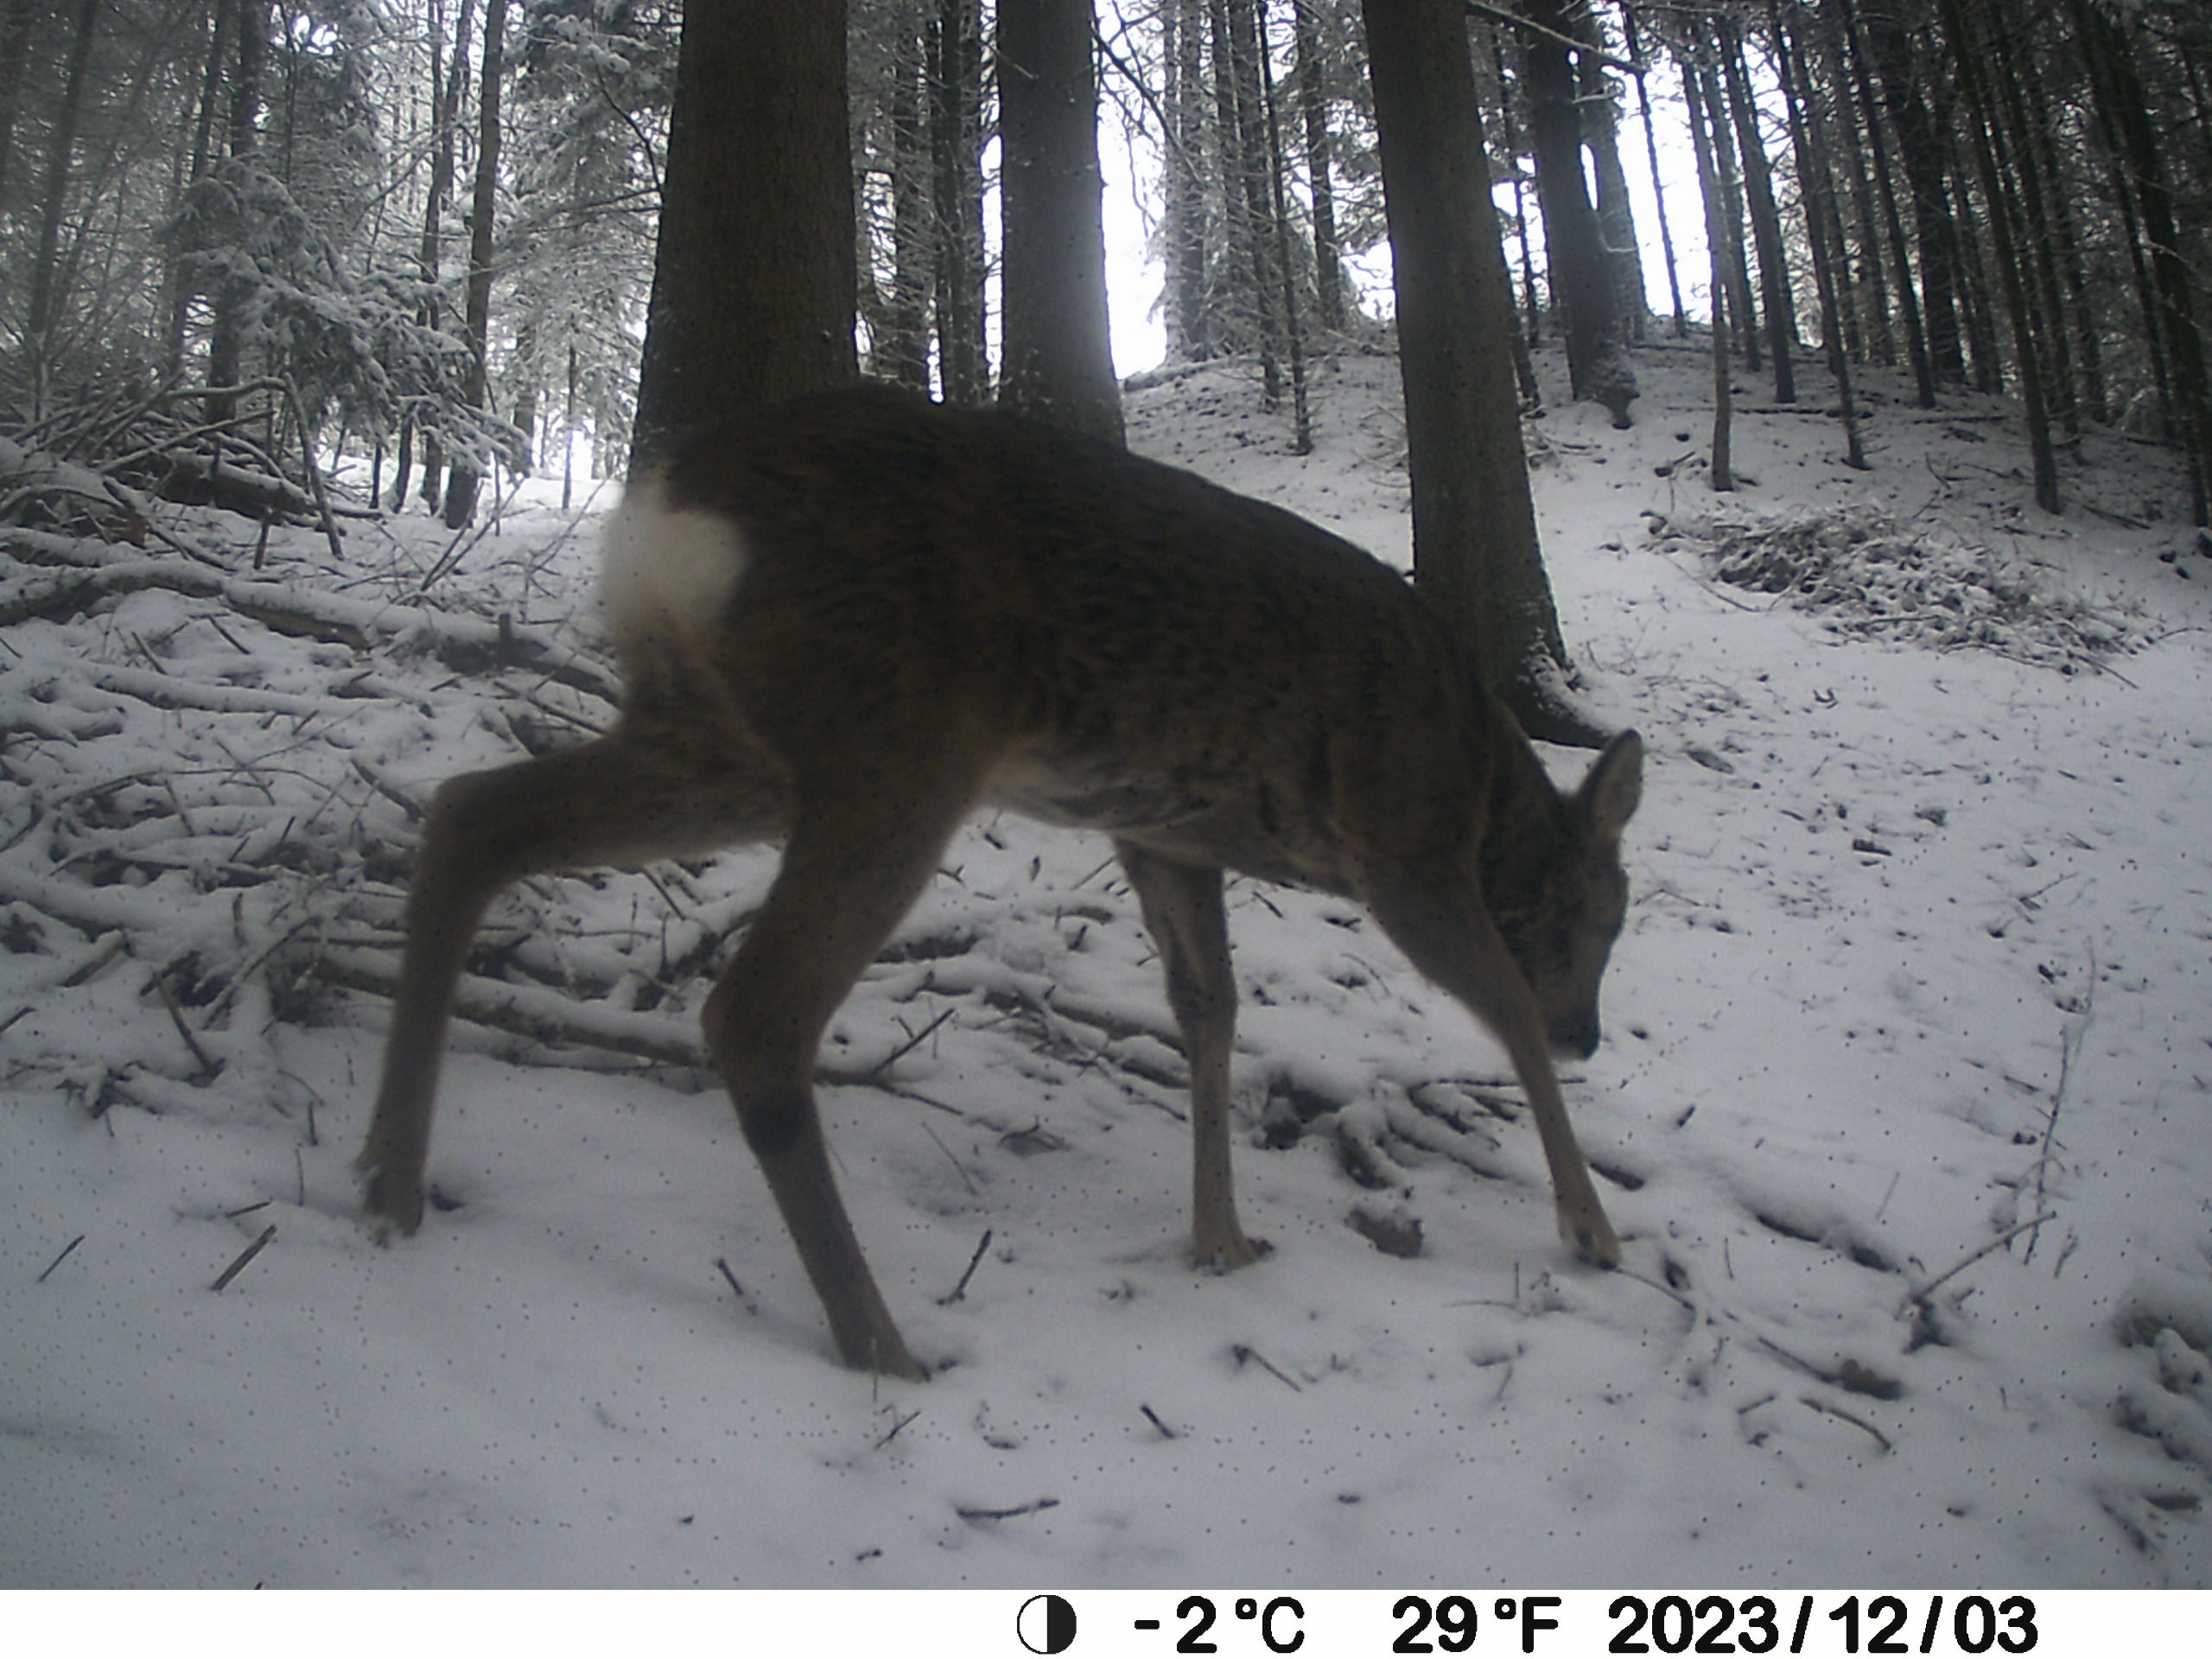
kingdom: Animalia
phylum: Chordata
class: Mammalia
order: Artiodactyla
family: Cervidae
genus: Capreolus
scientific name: Capreolus capreolus
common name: Rådyr
